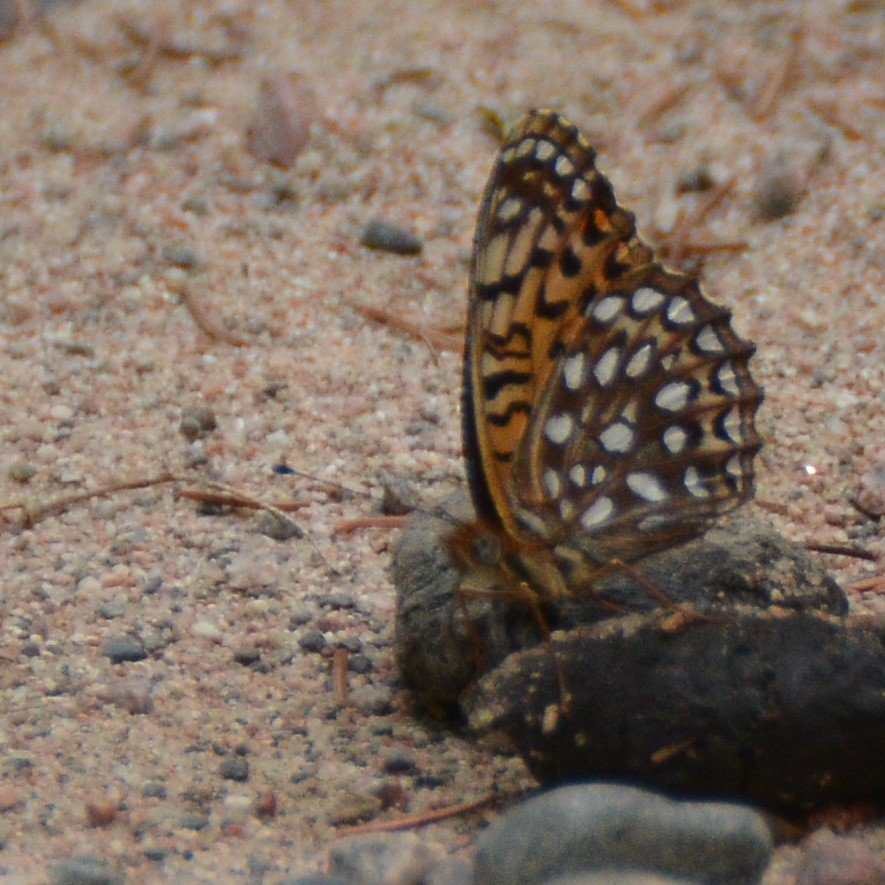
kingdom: Animalia
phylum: Arthropoda
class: Insecta
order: Lepidoptera
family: Nymphalidae
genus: Speyeria
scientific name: Speyeria atlantis
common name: Atlantis Fritillary
